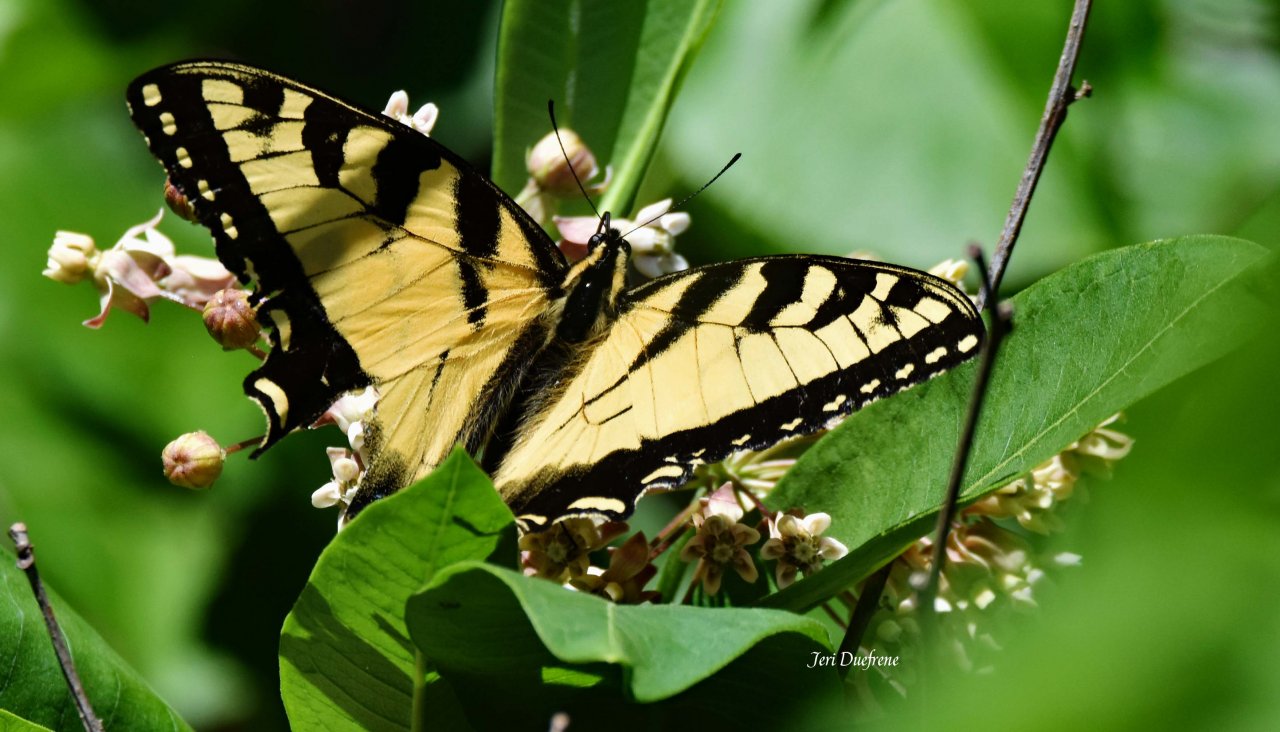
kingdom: Animalia
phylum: Arthropoda
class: Insecta
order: Lepidoptera
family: Papilionidae
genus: Pterourus
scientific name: Pterourus glaucus
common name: Eastern Tiger Swallowtail
